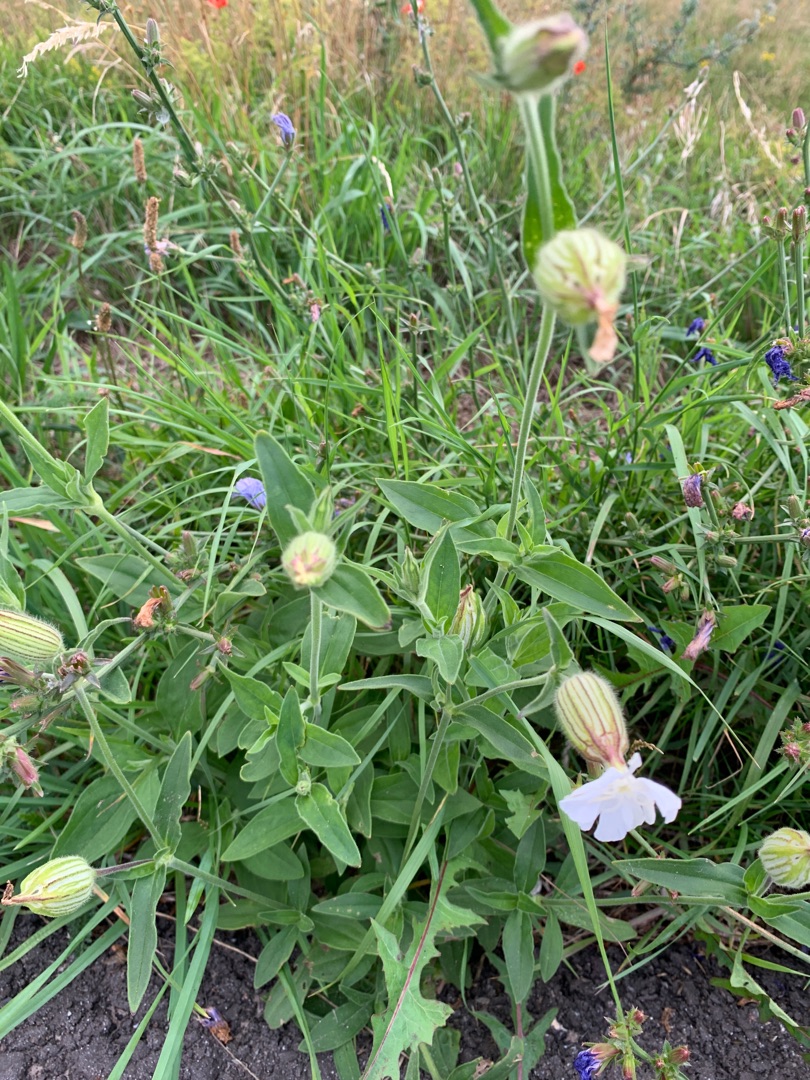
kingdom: Plantae
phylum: Tracheophyta
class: Magnoliopsida
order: Caryophyllales
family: Caryophyllaceae
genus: Silene
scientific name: Silene latifolia
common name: Aftenpragtstjerne
